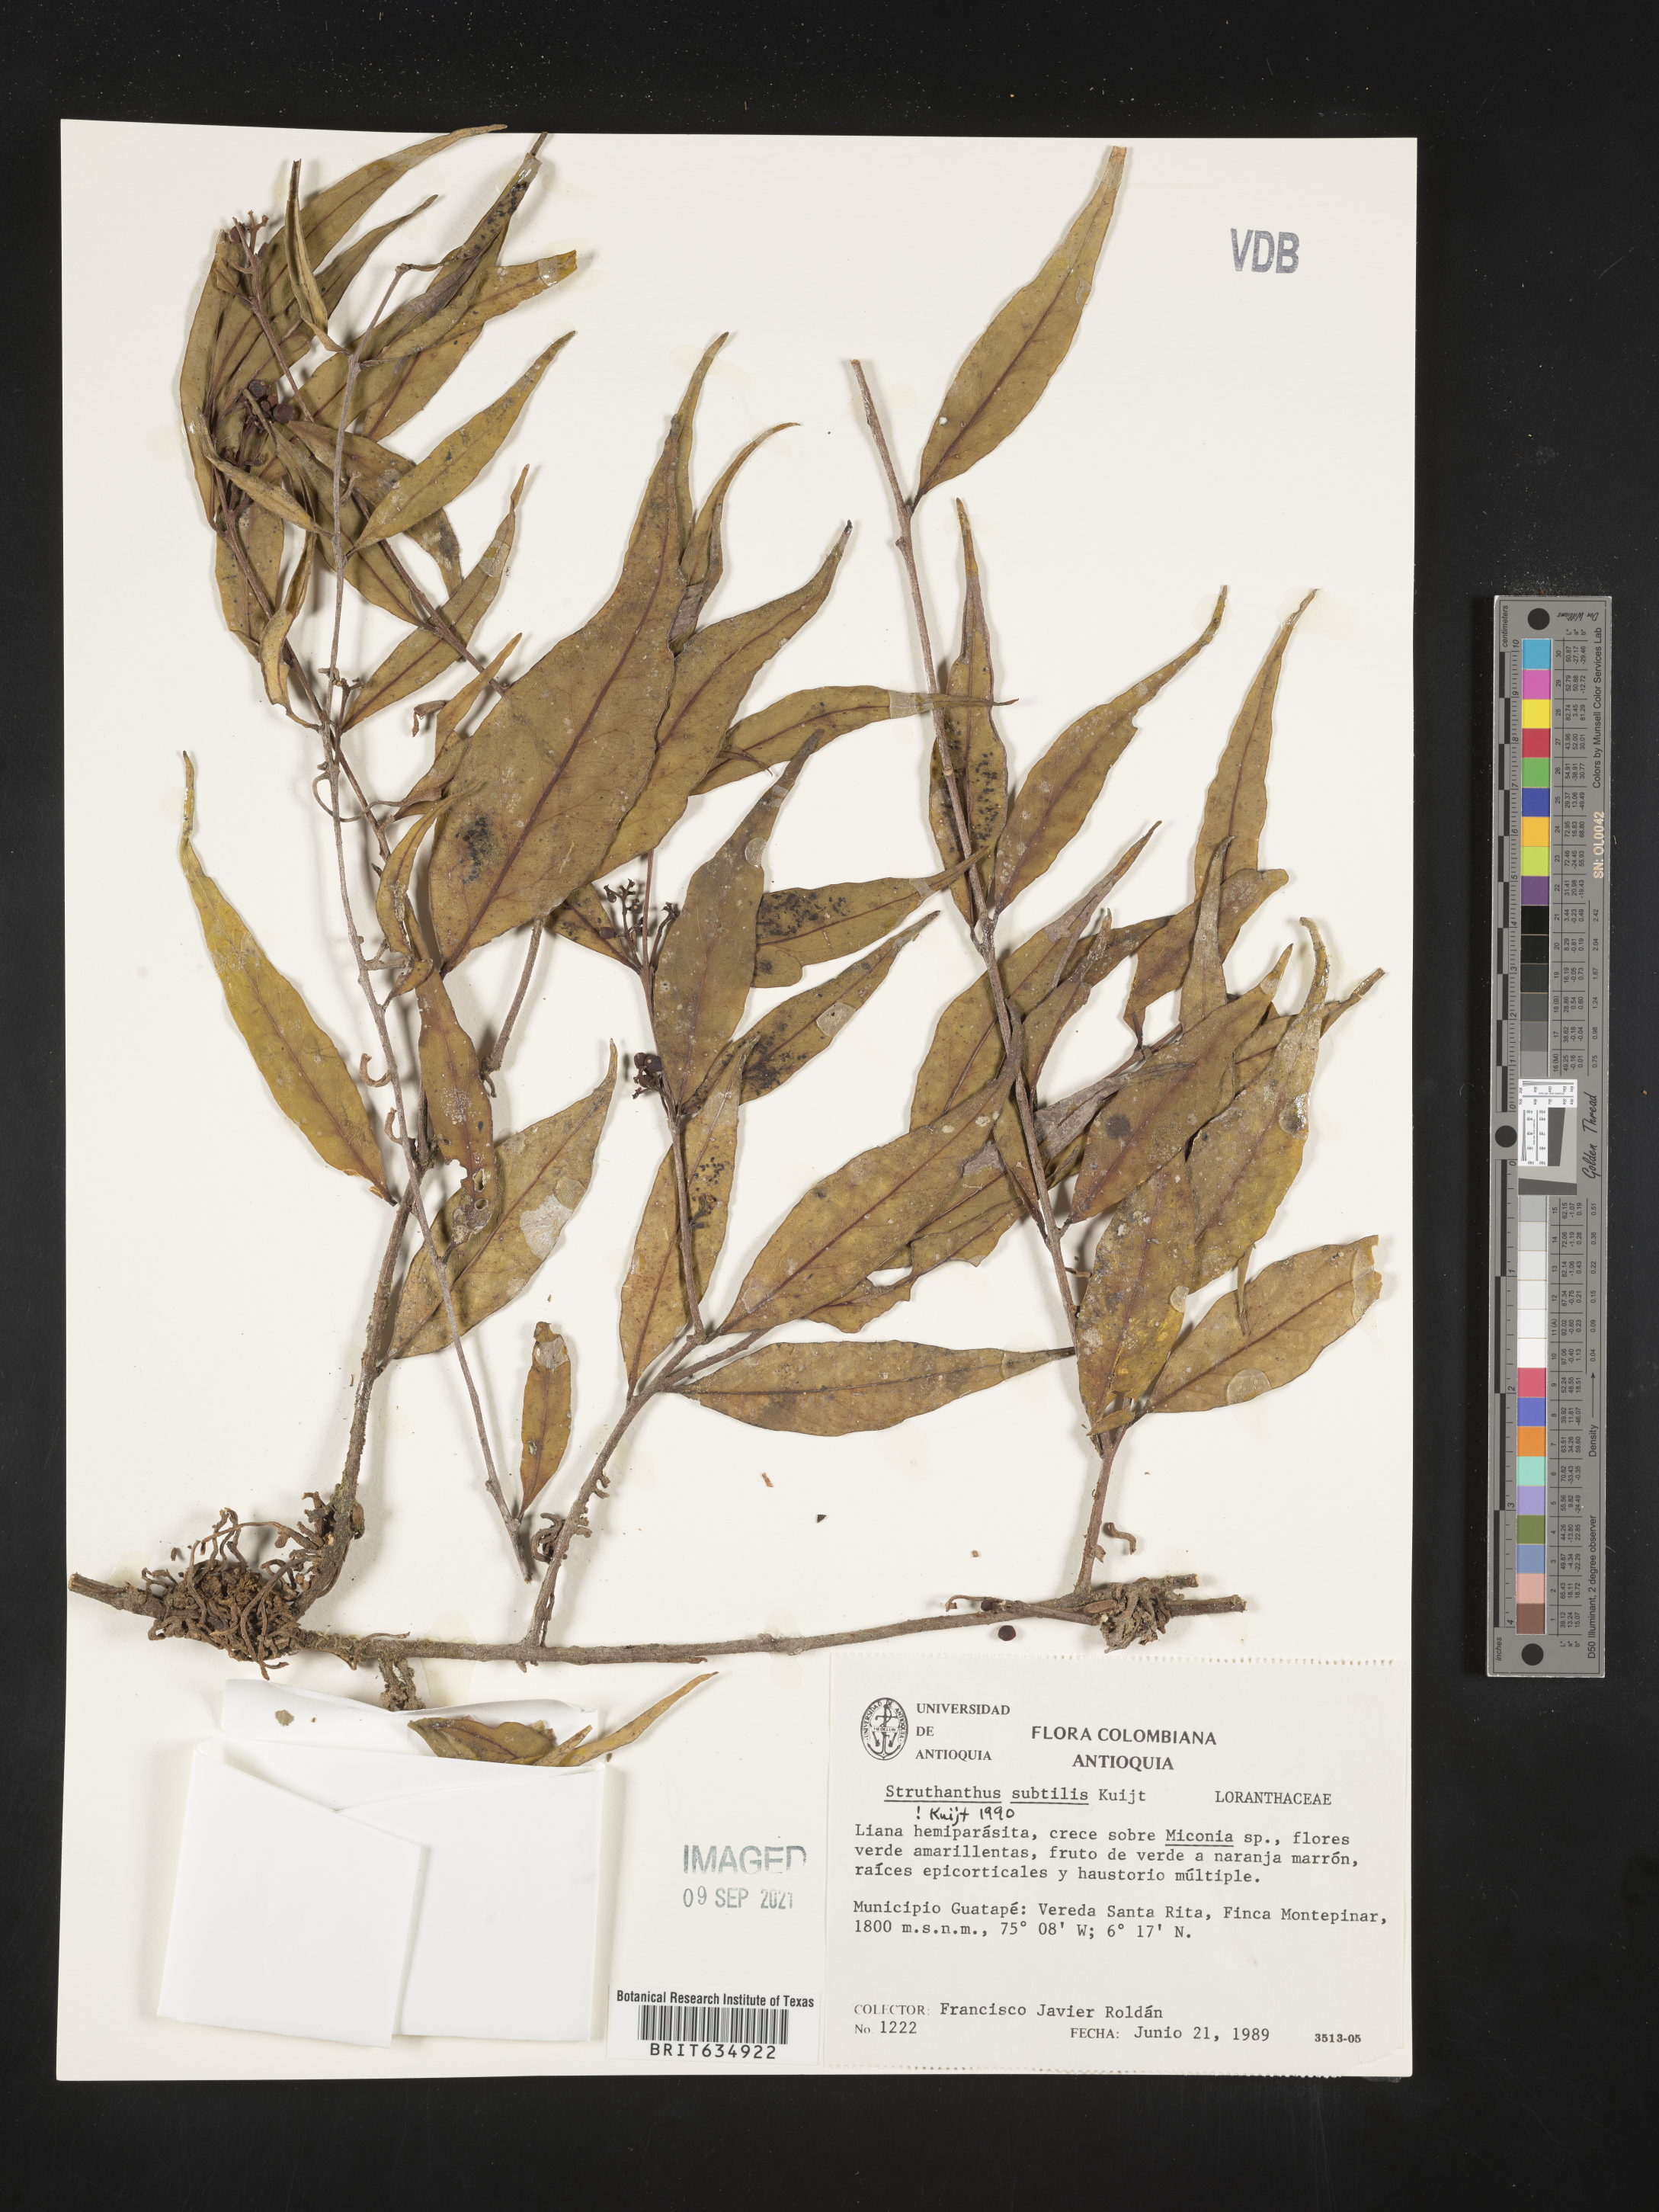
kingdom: Plantae
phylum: Tracheophyta
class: Magnoliopsida
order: Santalales
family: Loranthaceae
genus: Struthanthus
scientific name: Struthanthus
